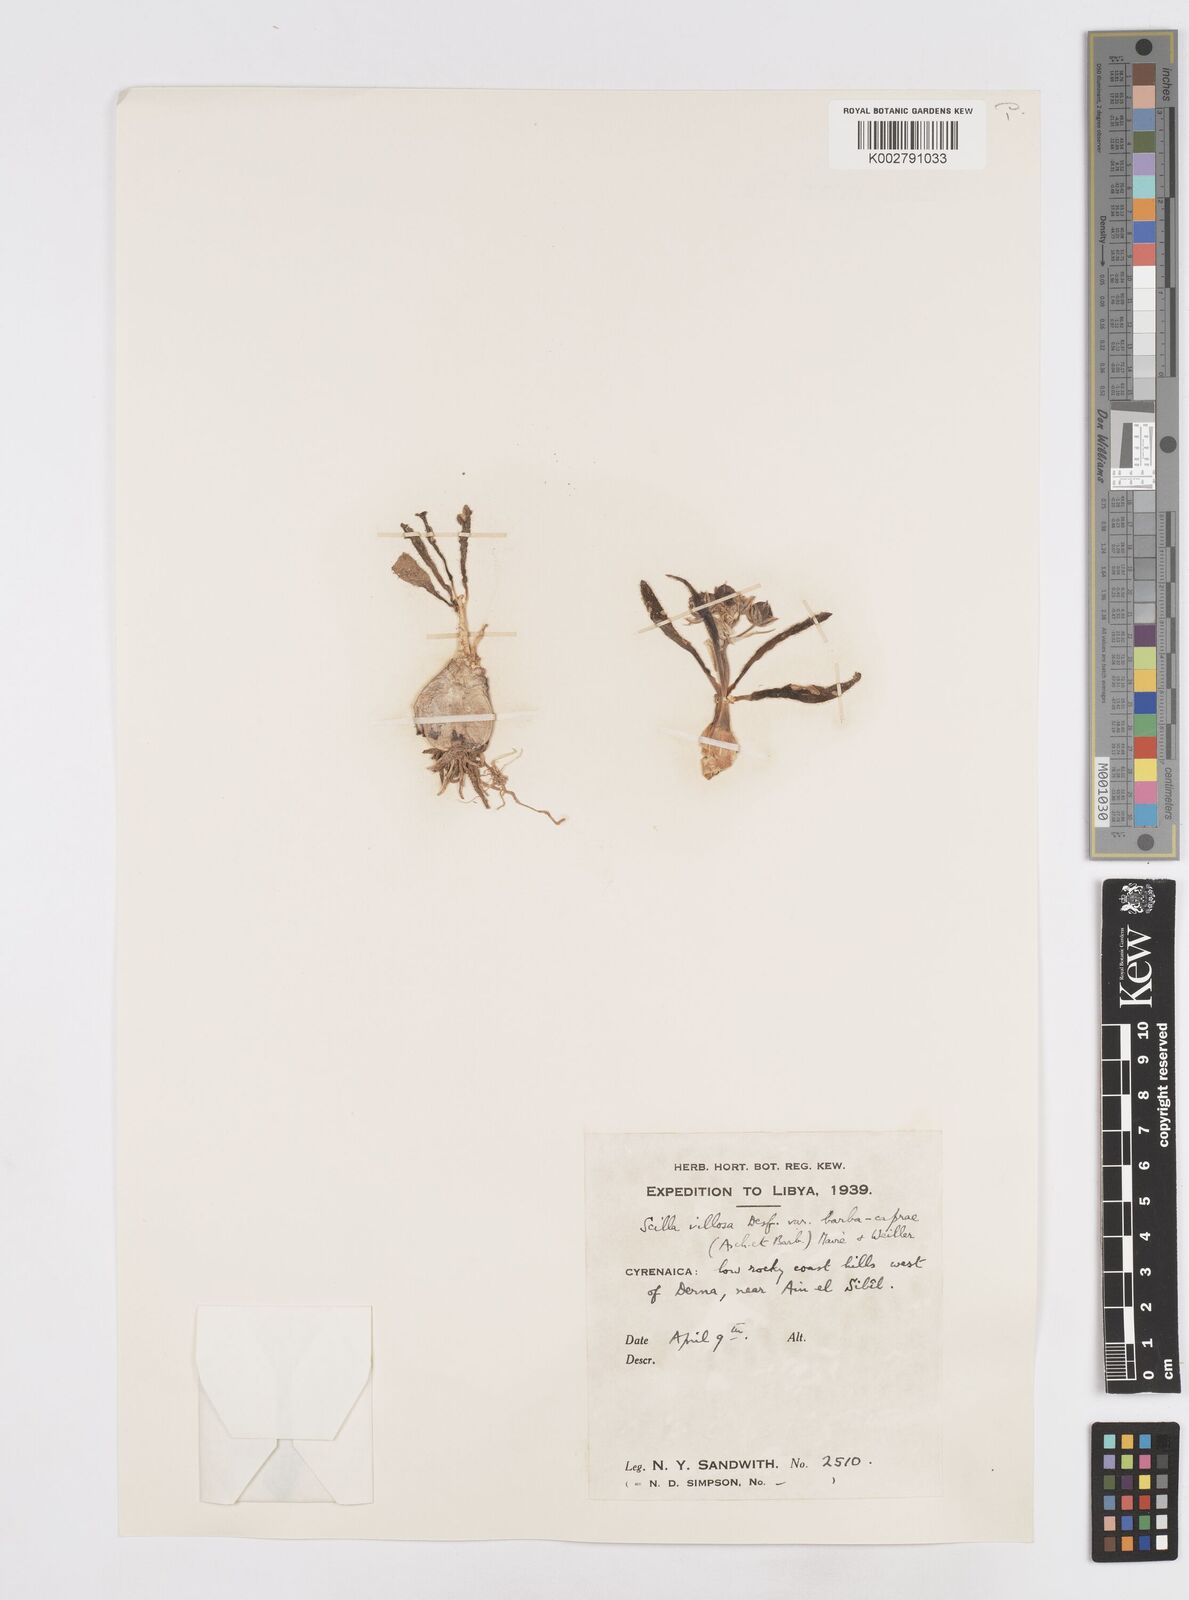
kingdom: Plantae
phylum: Tracheophyta
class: Liliopsida
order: Asparagales
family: Asparagaceae
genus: Scilla
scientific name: Scilla villosa
